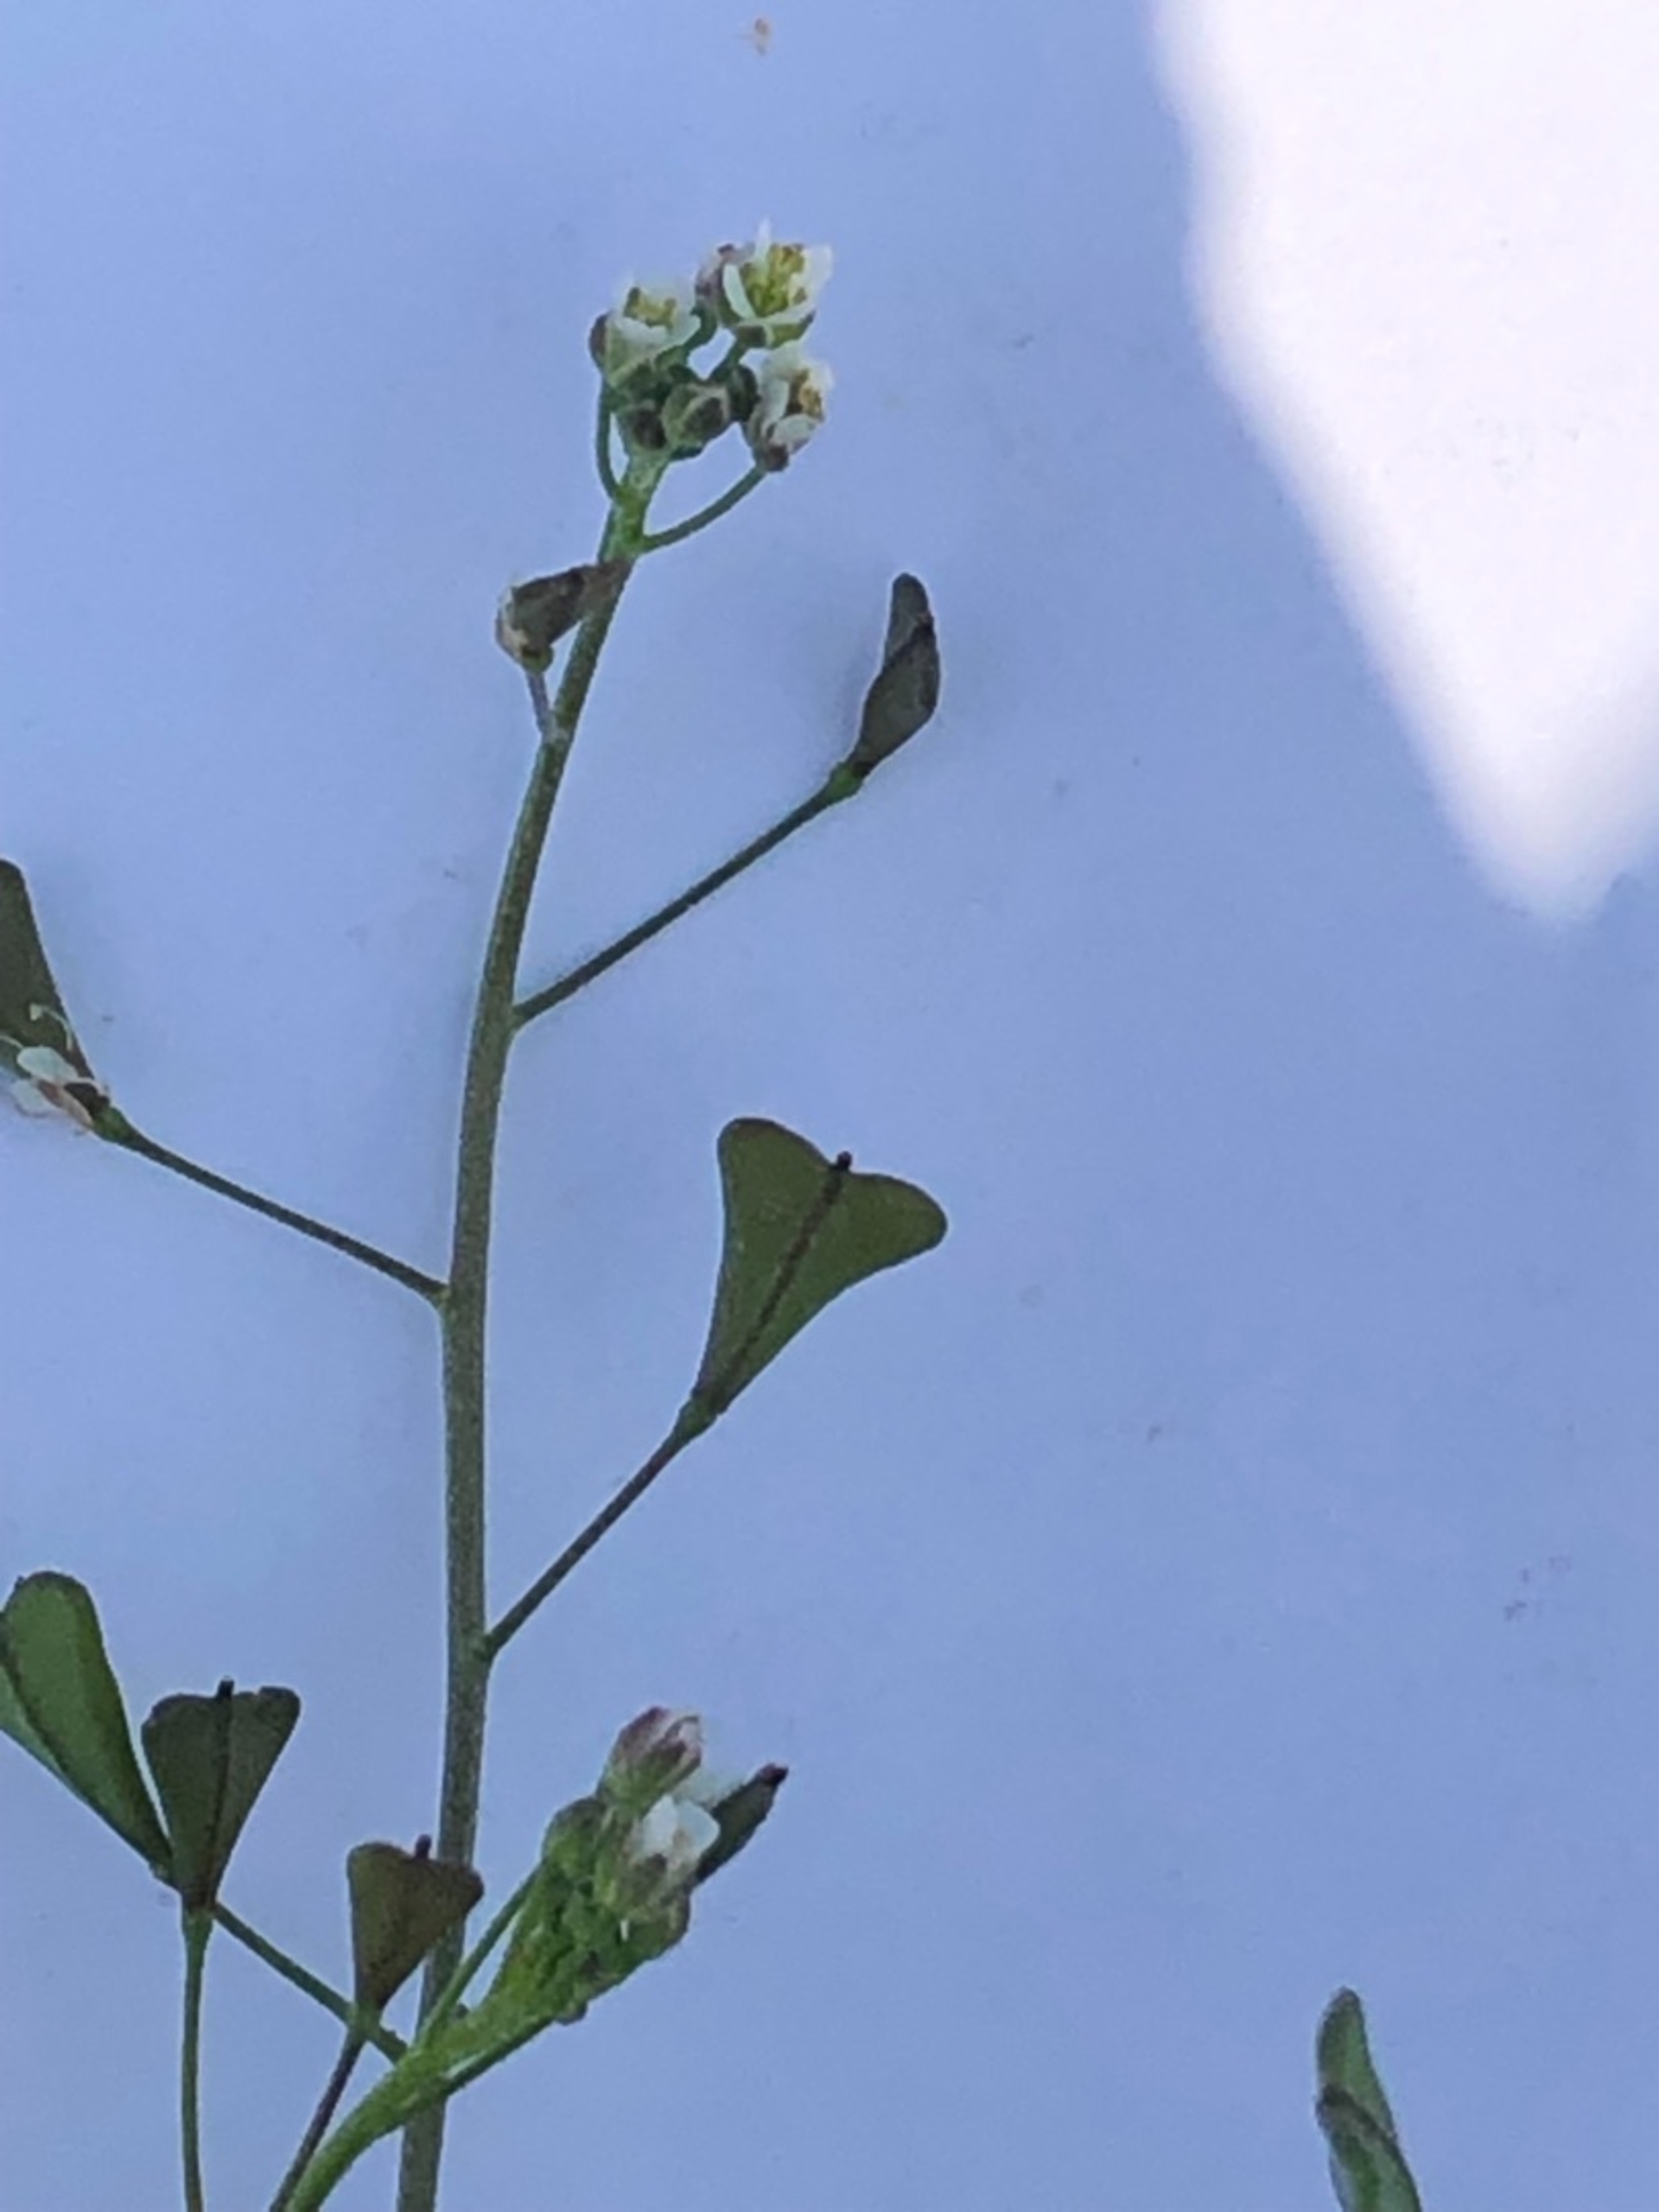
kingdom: Plantae
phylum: Tracheophyta
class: Magnoliopsida
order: Brassicales
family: Brassicaceae
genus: Capsella
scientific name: Capsella bursa-pastoris
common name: Hyrdetaske
